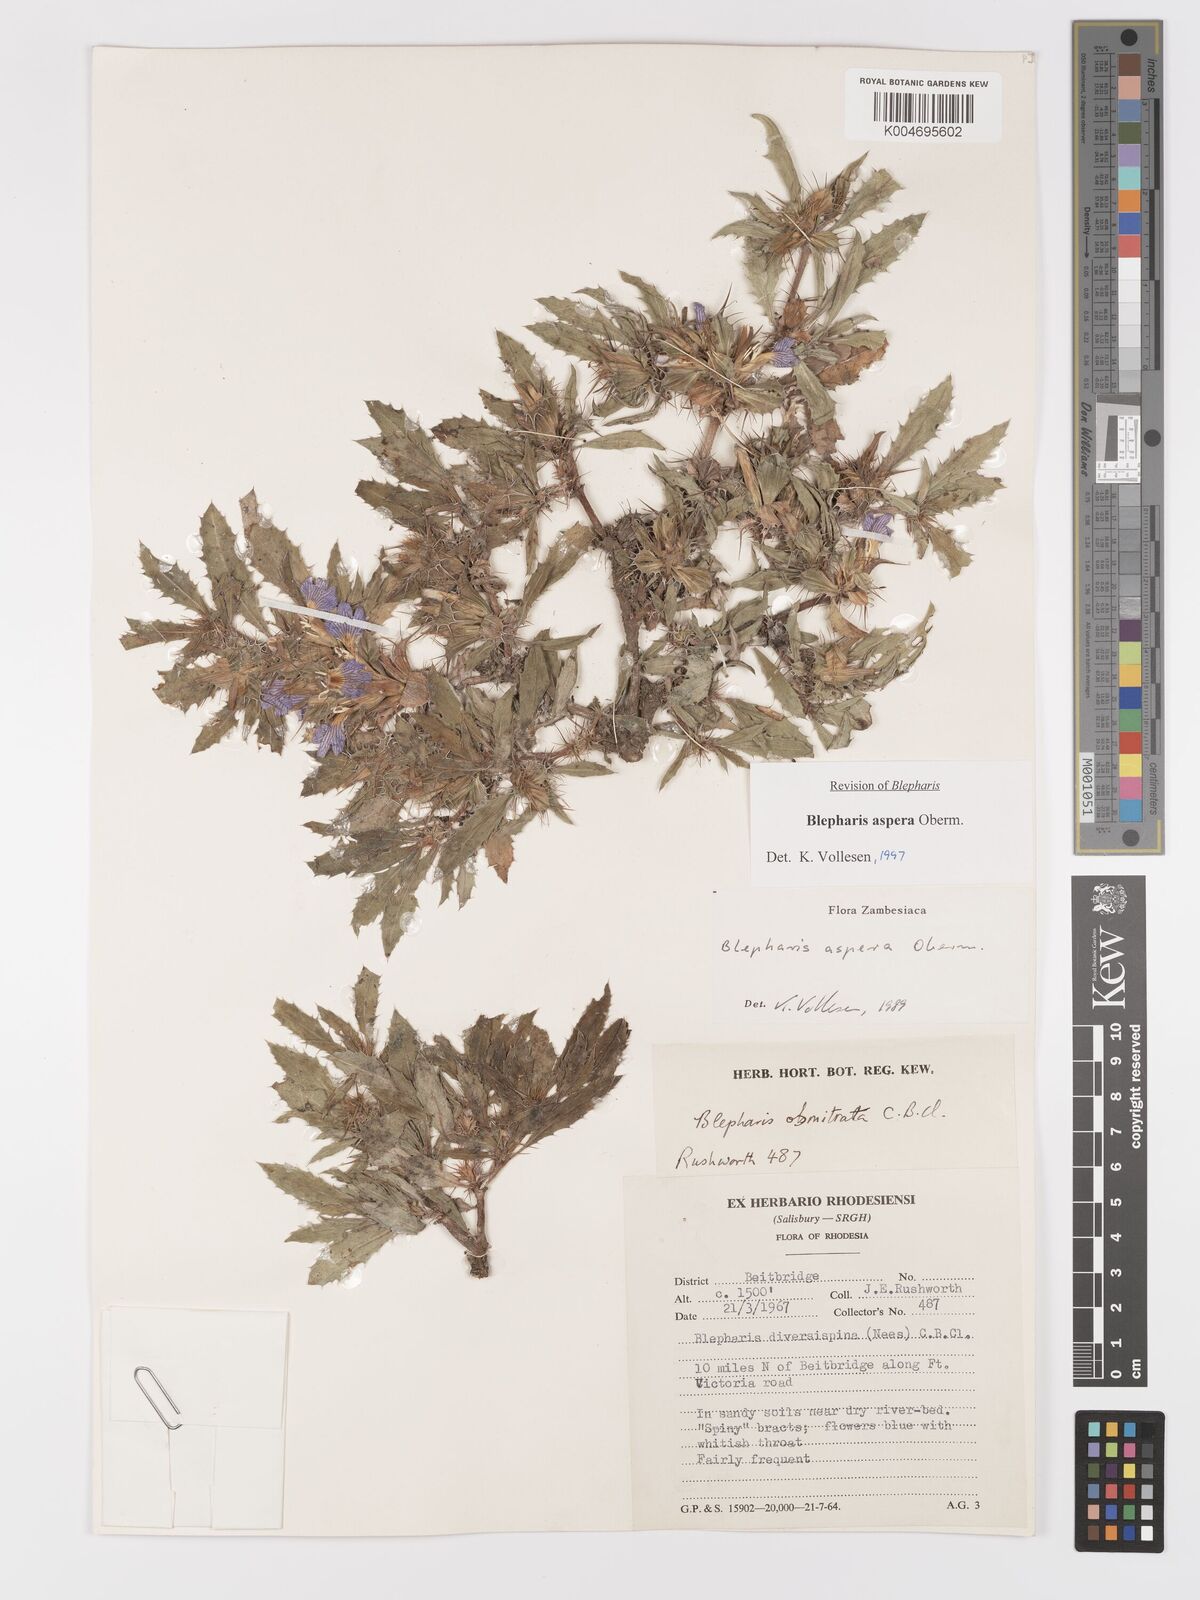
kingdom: Plantae
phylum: Tracheophyta
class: Magnoliopsida
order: Lamiales
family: Acanthaceae
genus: Blepharis
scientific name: Blepharis aspera
